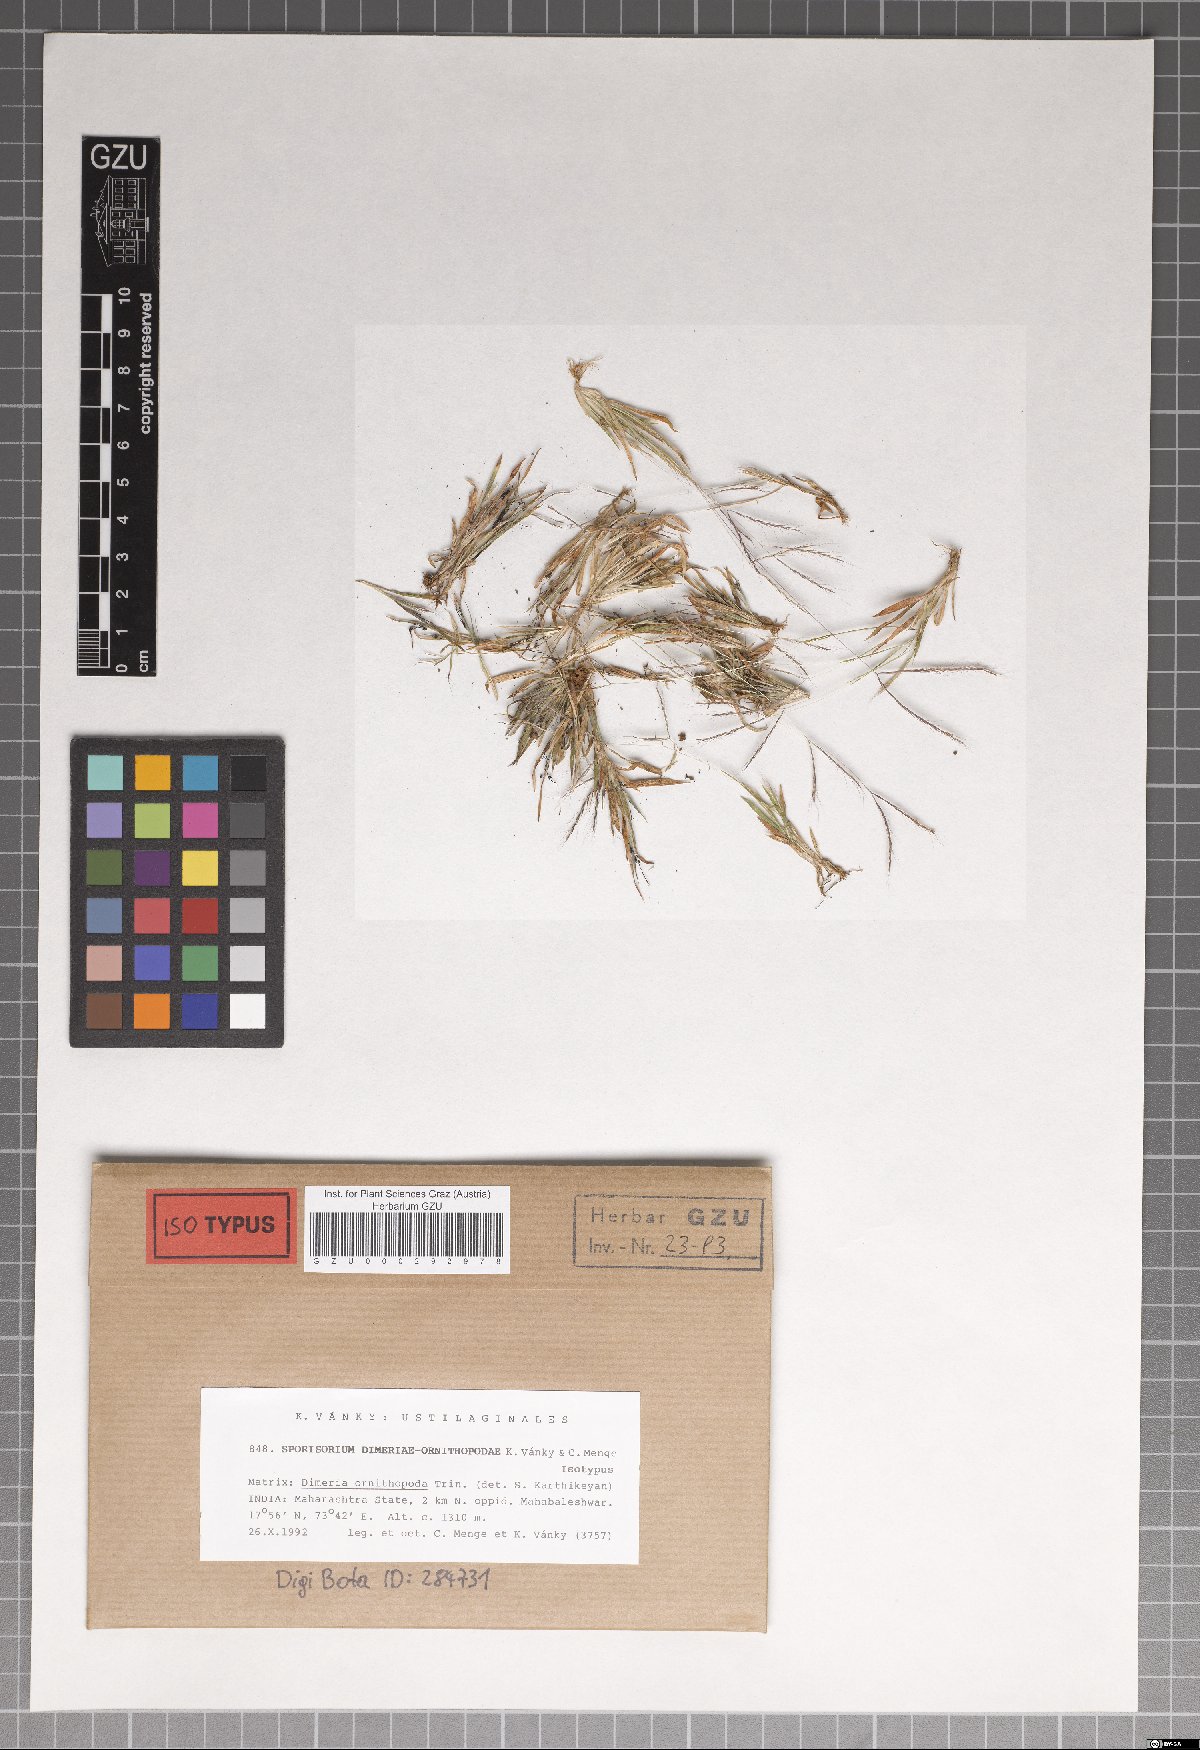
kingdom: Fungi
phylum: Basidiomycota
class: Ustilaginomycetes
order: Ustilaginales
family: Ustilaginaceae
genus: Sporisorium
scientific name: Sporisorium dimeriae-ornithopodae
